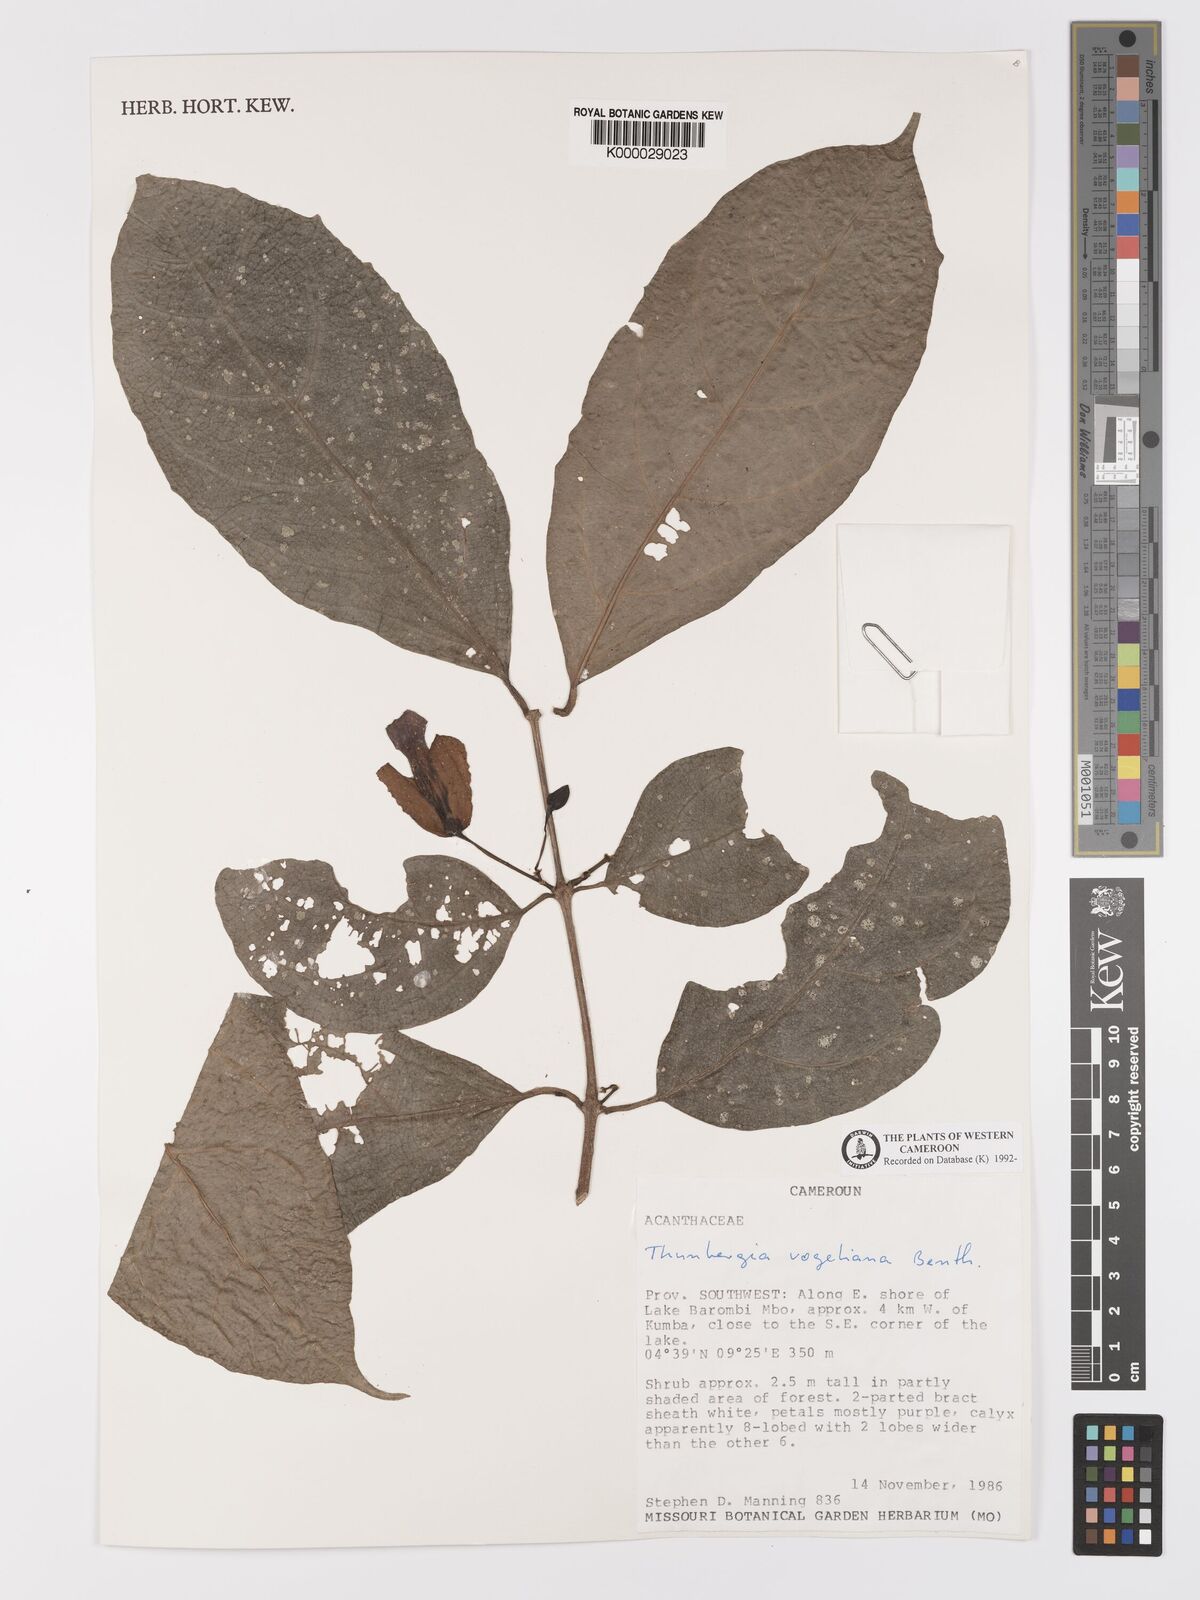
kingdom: Plantae
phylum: Tracheophyta
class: Magnoliopsida
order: Lamiales
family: Acanthaceae
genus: Thunbergia
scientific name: Thunbergia vogeliana
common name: Acanthaceae
